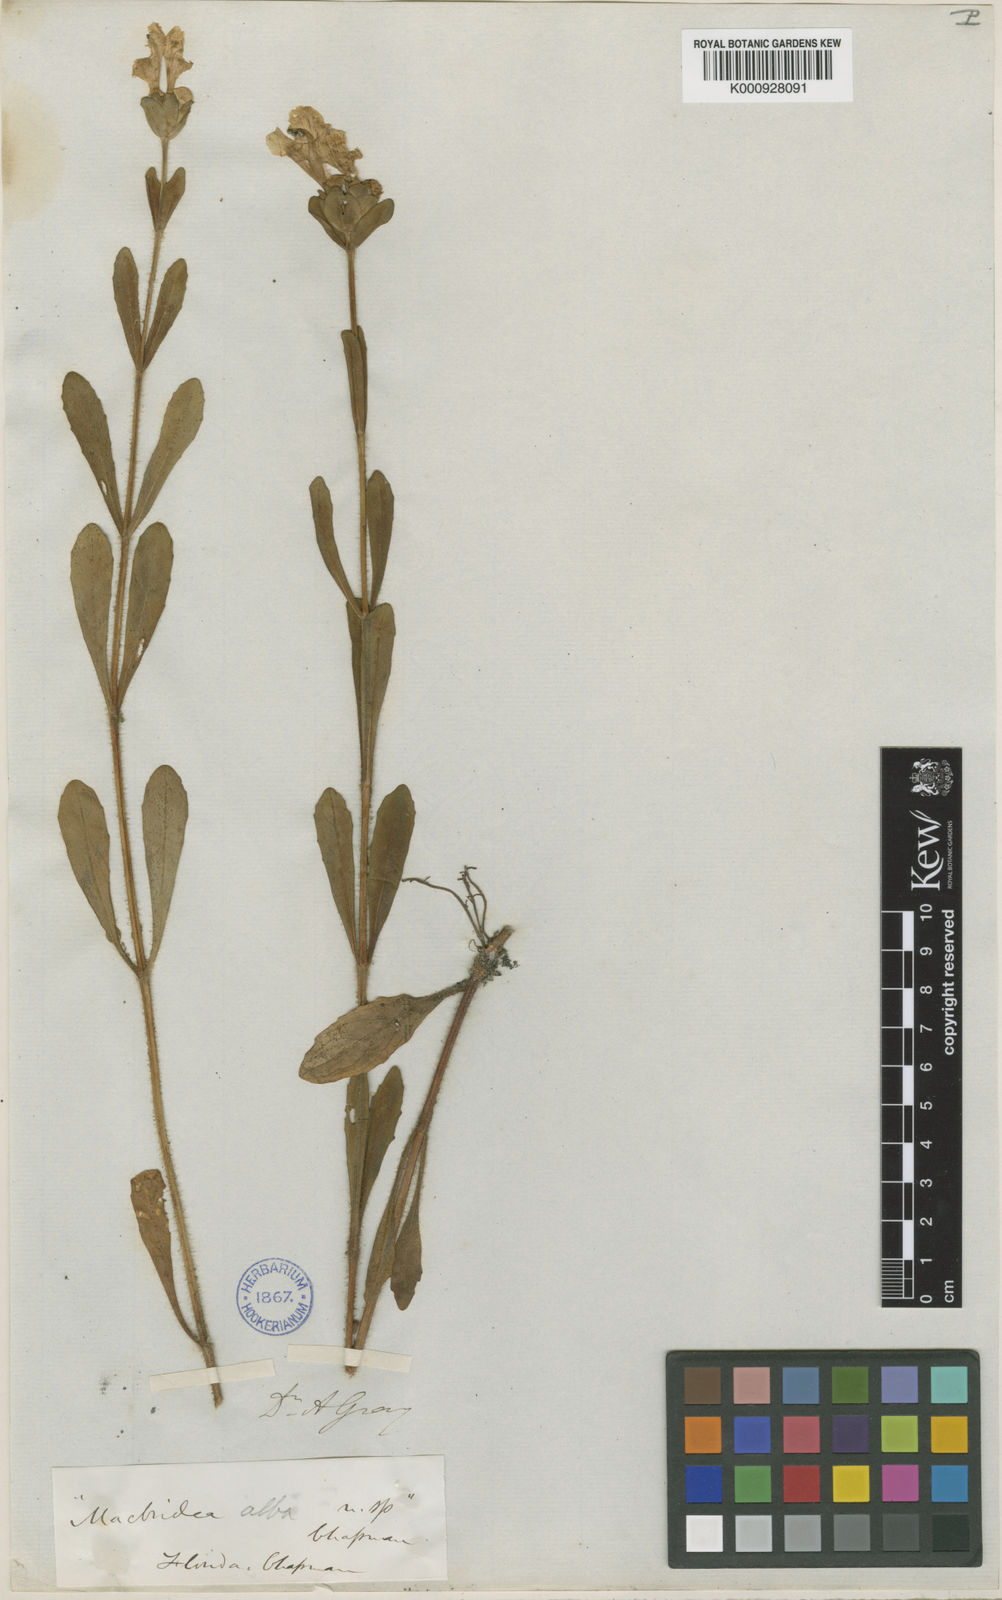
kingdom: Plantae
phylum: Tracheophyta
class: Magnoliopsida
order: Lamiales
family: Lamiaceae
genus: Macbridea
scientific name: Macbridea alba
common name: White birds in-a-nest
